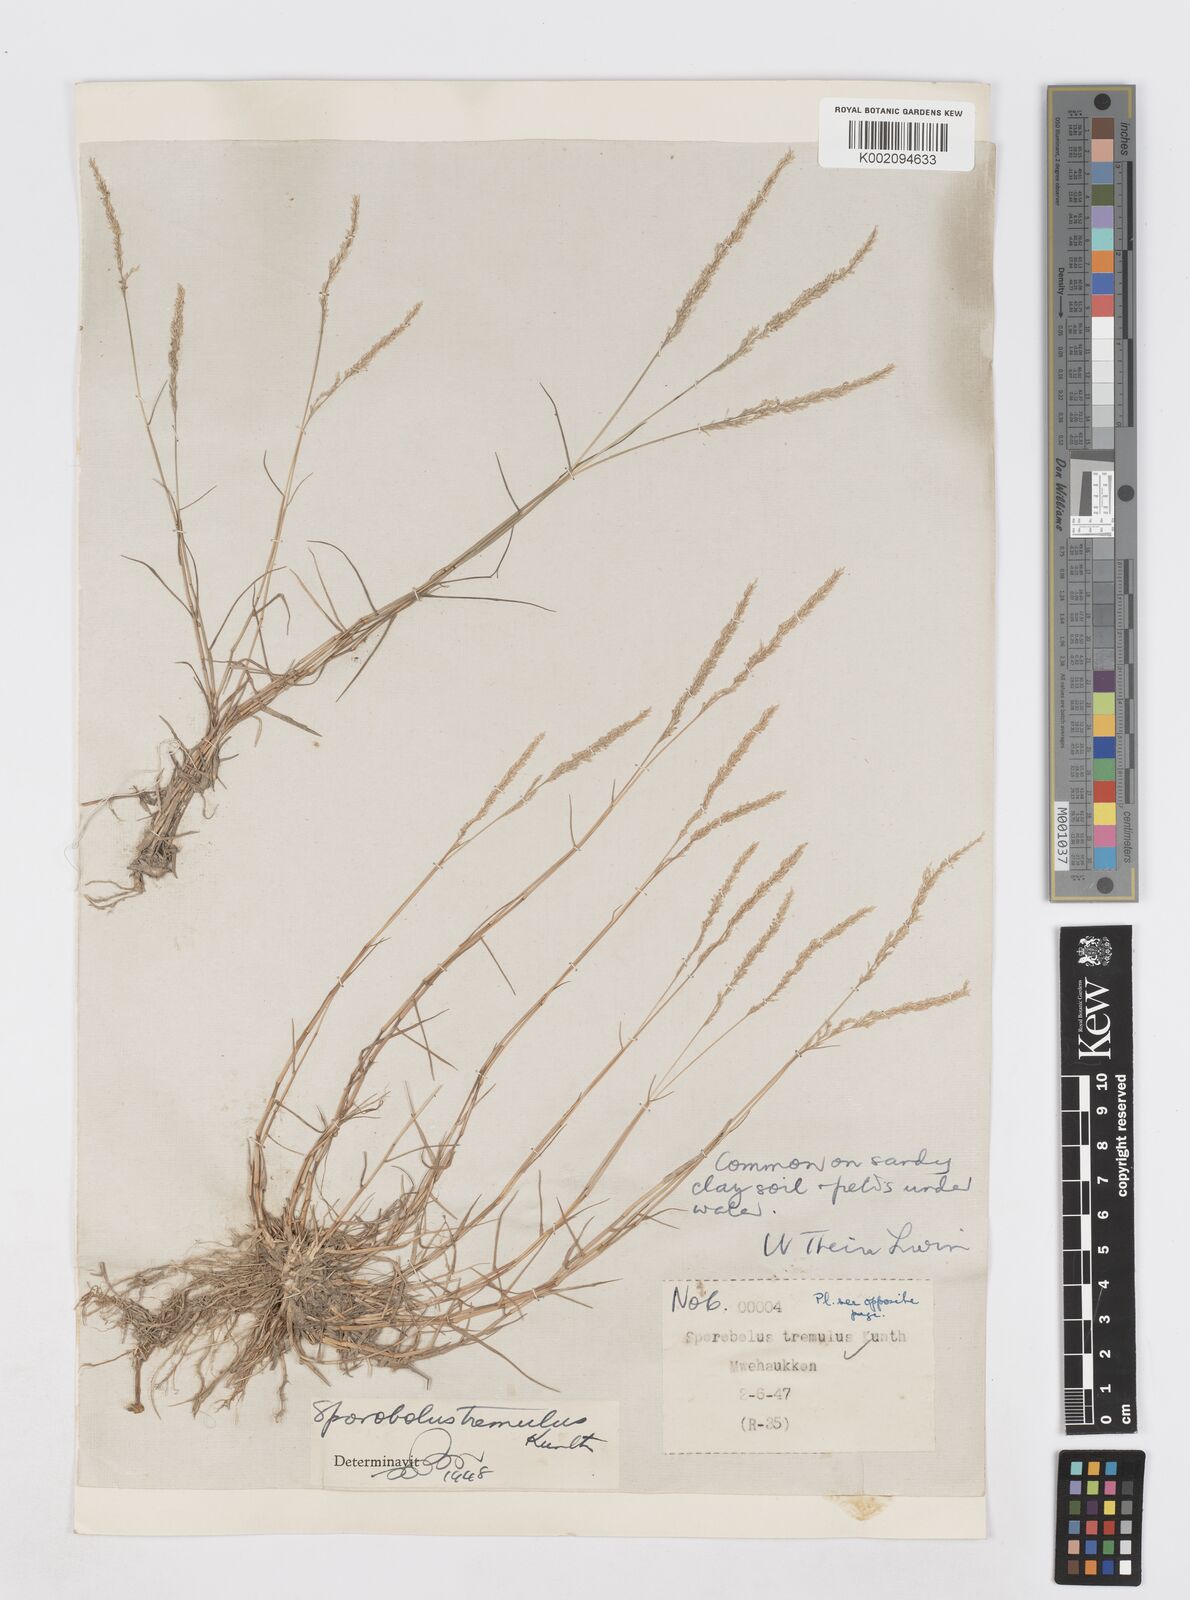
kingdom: Plantae
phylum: Tracheophyta
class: Liliopsida
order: Poales
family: Poaceae
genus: Sporobolus
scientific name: Sporobolus virginicus
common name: Beach dropseed
